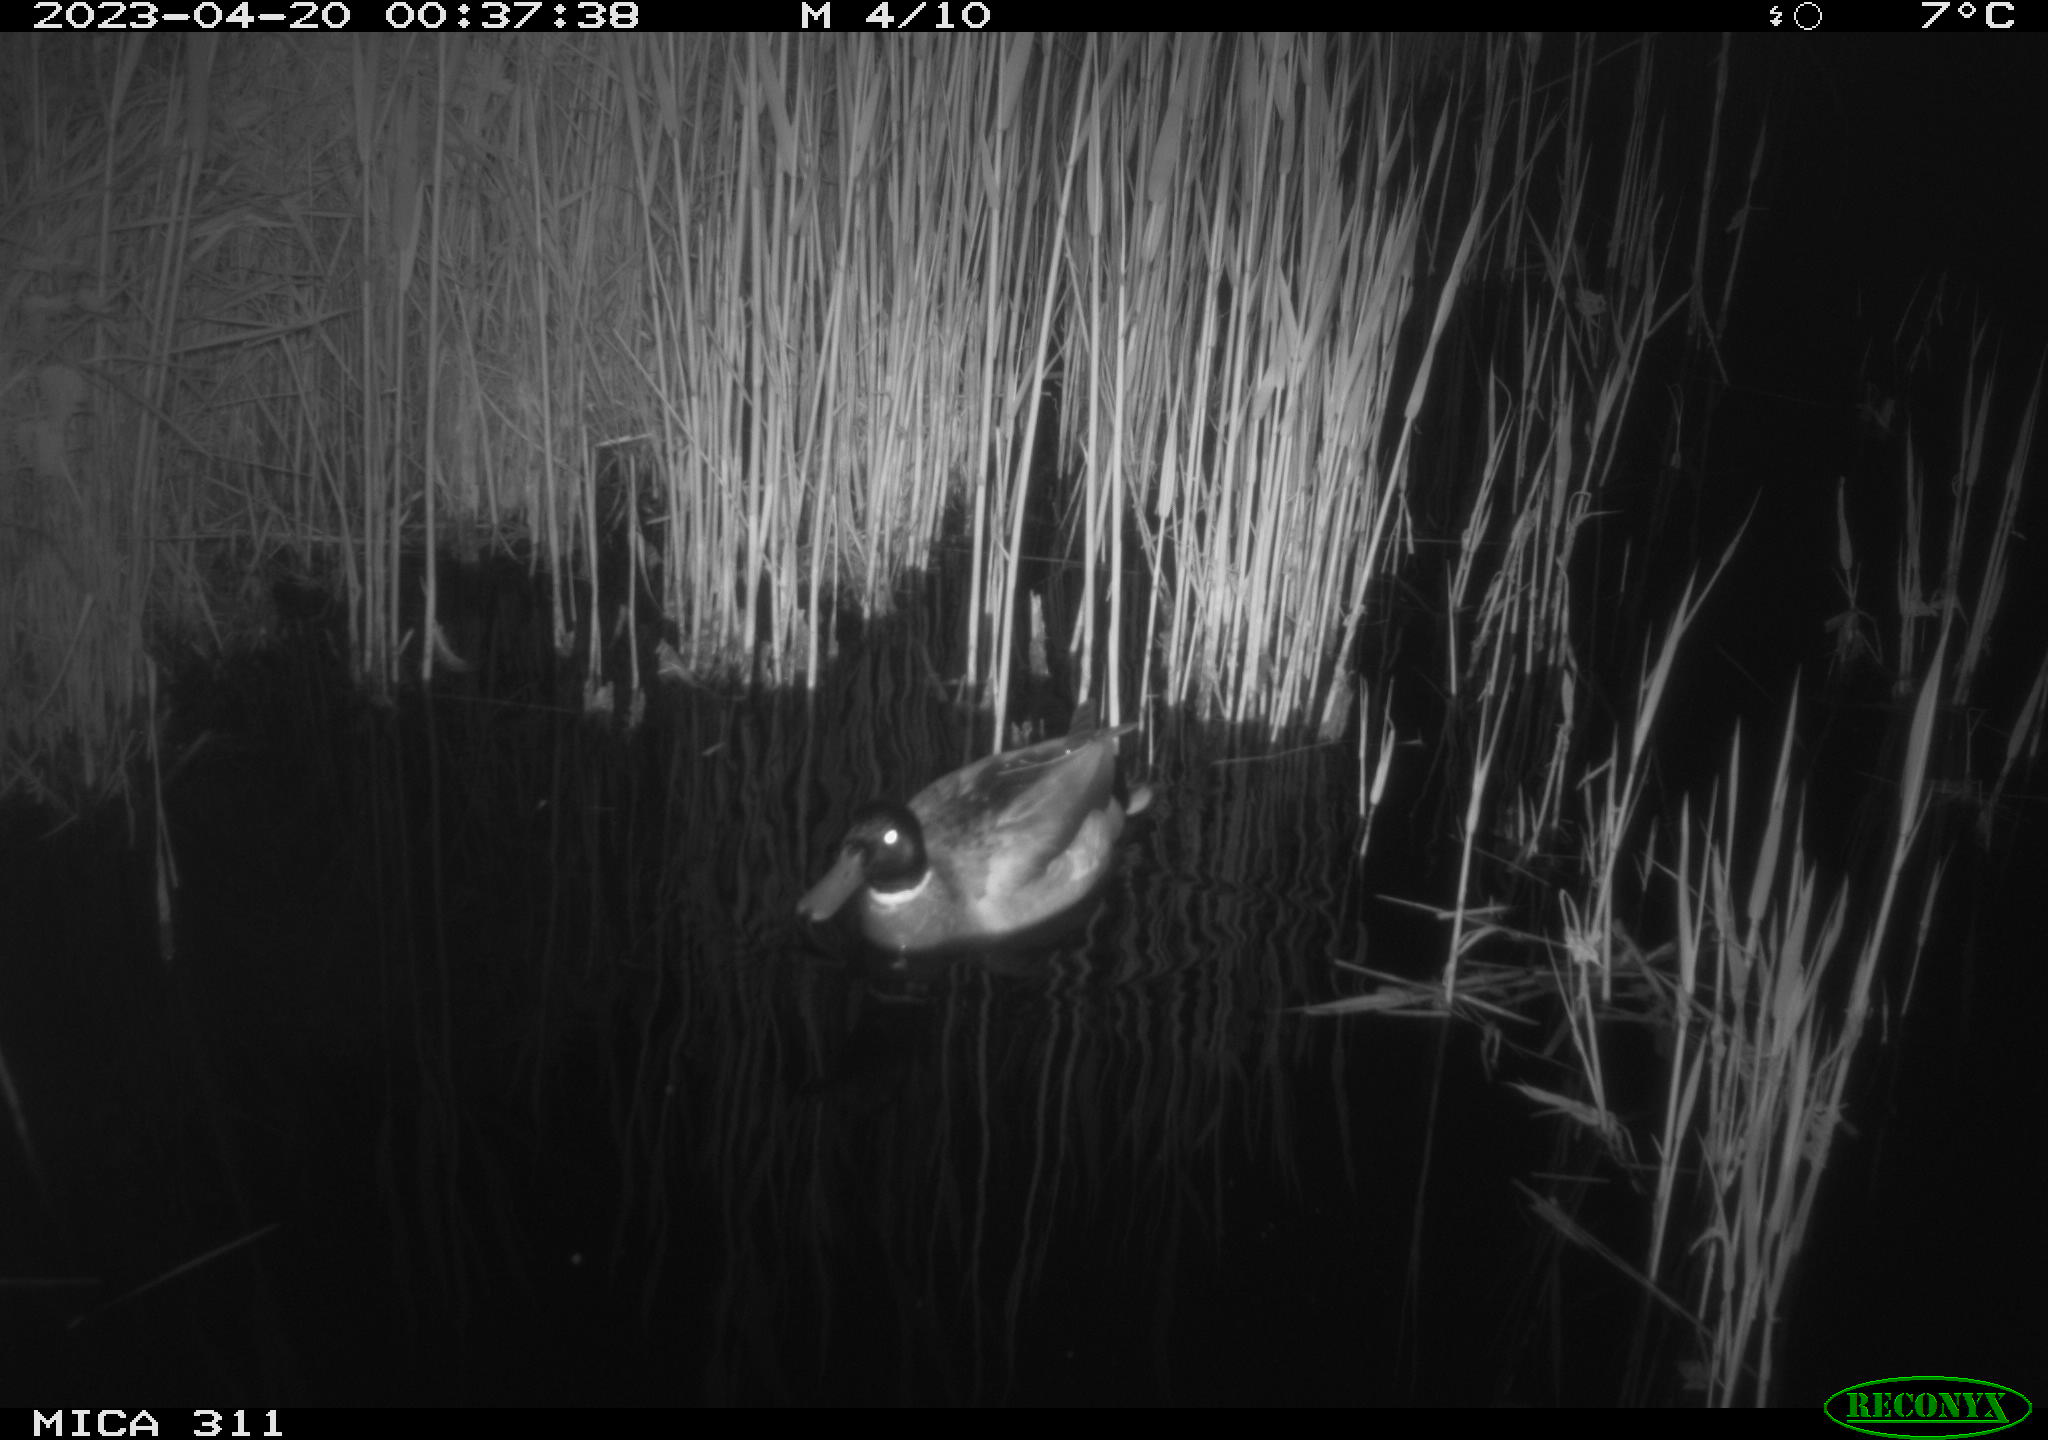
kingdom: Animalia
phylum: Chordata
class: Aves
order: Anseriformes
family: Anatidae
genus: Anas
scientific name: Anas
